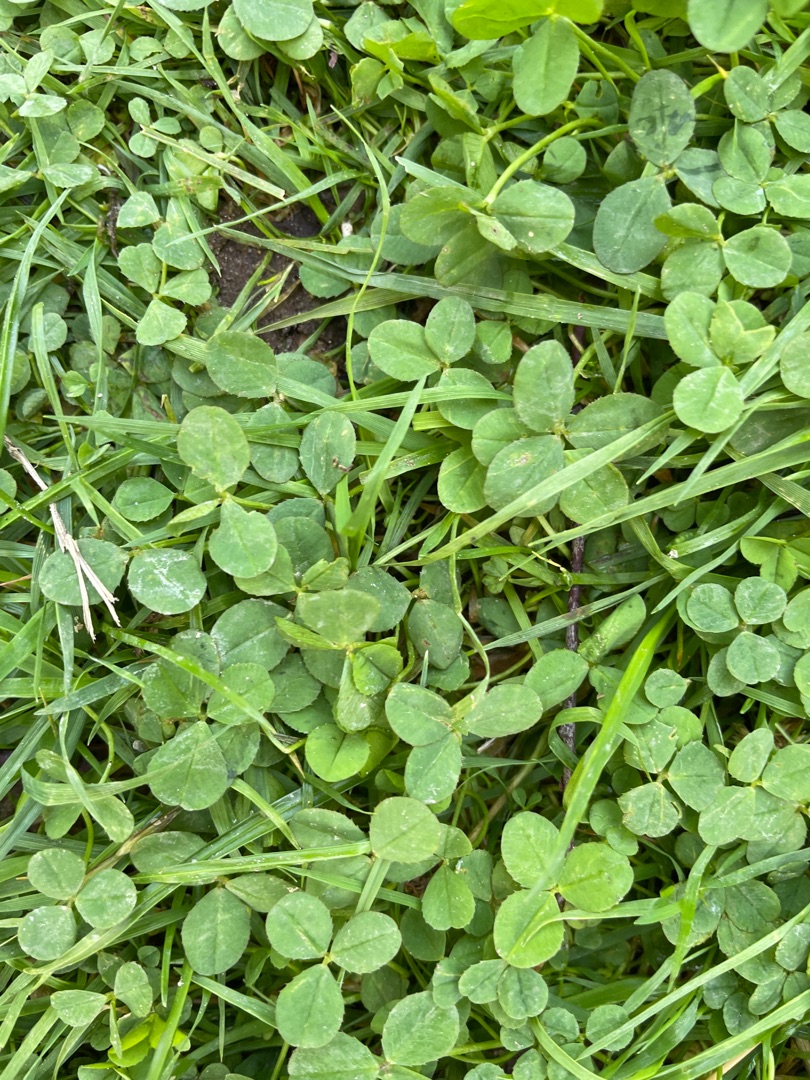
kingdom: Plantae
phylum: Tracheophyta
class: Magnoliopsida
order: Fabales
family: Fabaceae
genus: Trifolium
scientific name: Trifolium
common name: Kløverslægten
